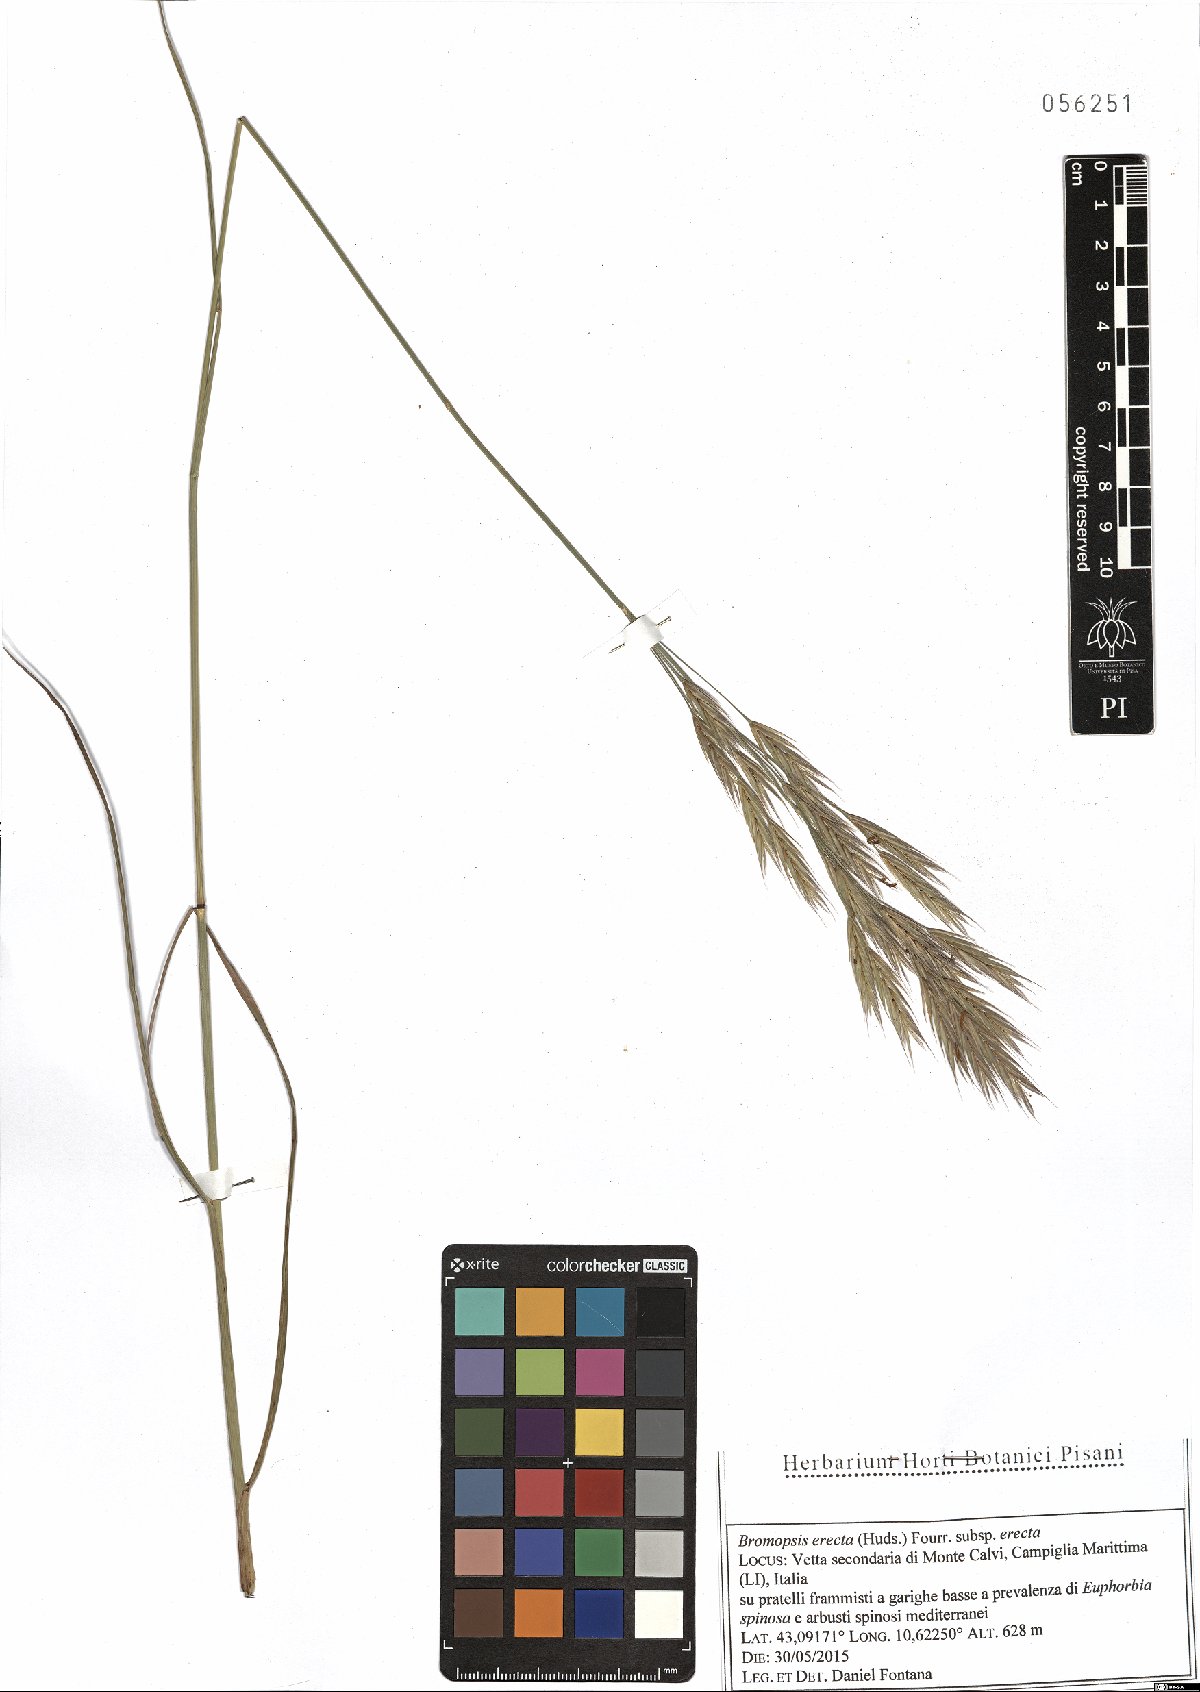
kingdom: Plantae
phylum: Tracheophyta
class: Liliopsida
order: Poales
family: Poaceae
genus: Bromus
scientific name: Bromus erectus
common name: Erect brome
